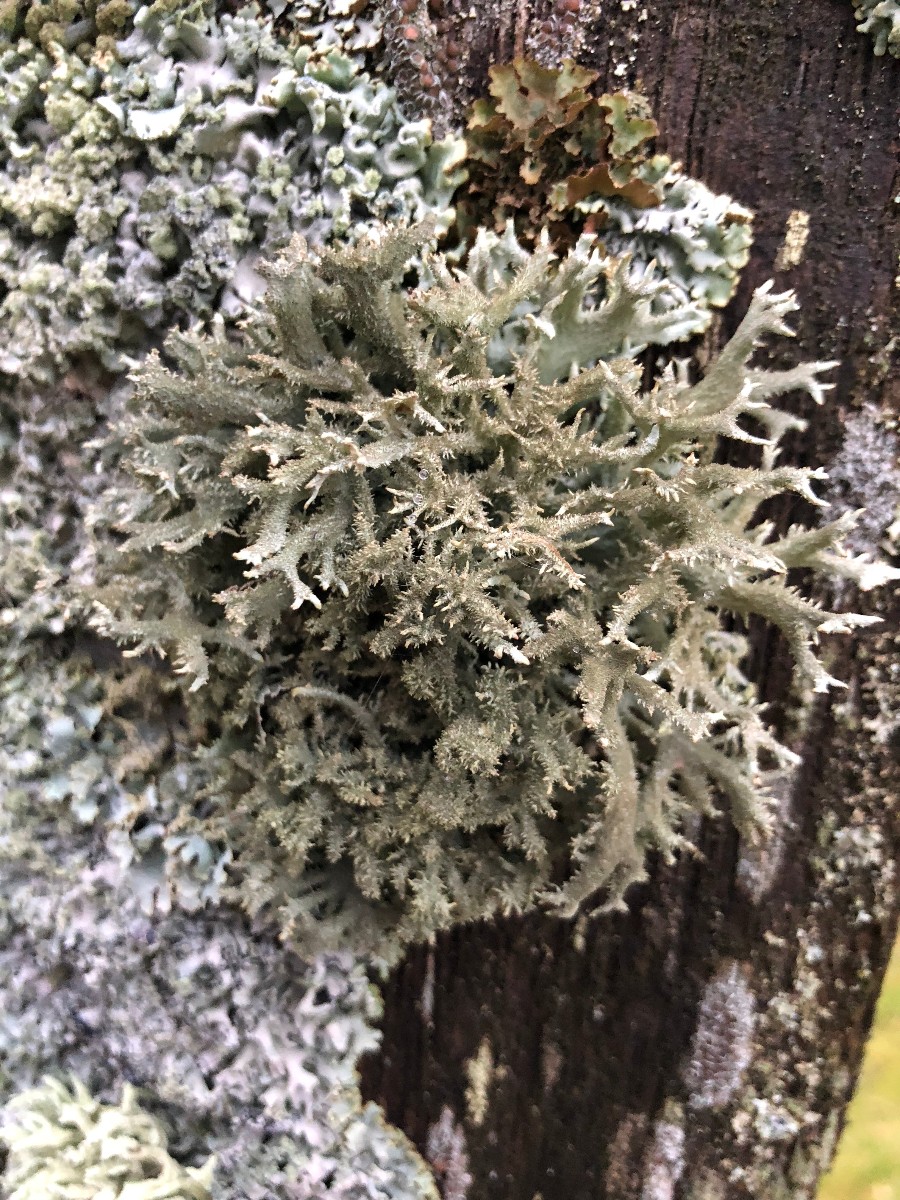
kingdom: Fungi
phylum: Ascomycota
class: Lecanoromycetes
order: Lecanorales
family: Parmeliaceae
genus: Pseudevernia
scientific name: Pseudevernia furfuracea
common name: grå fyrrelav
